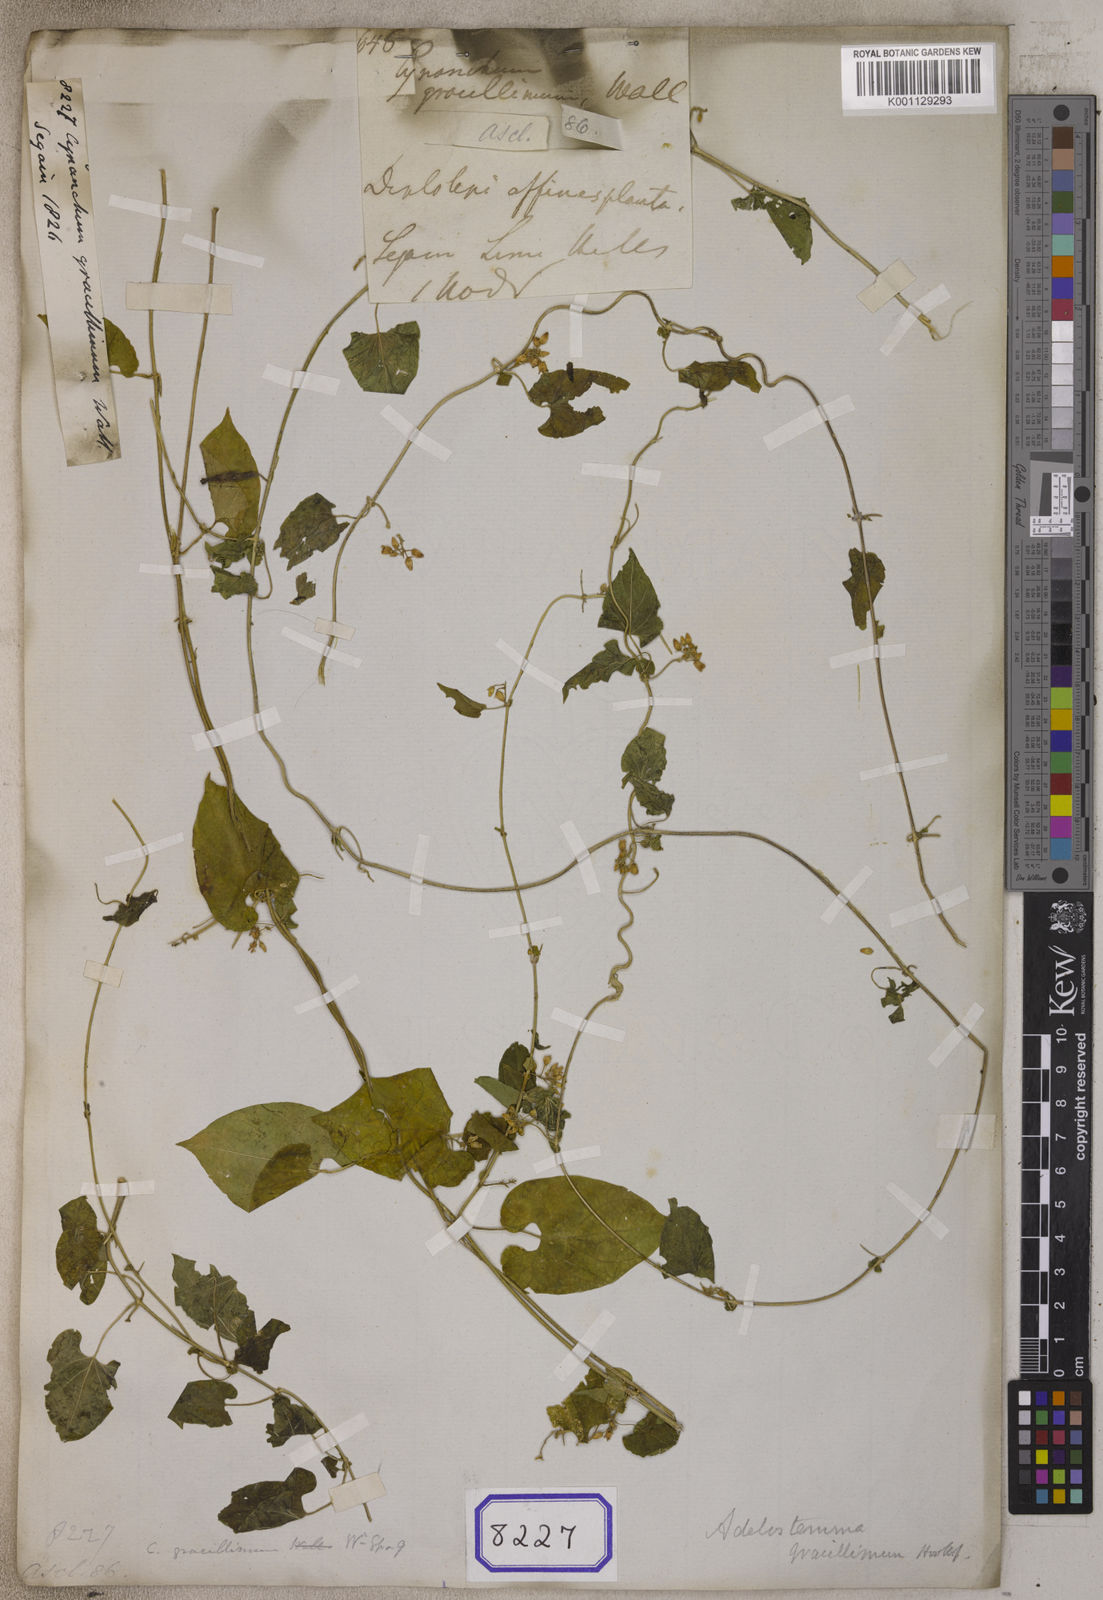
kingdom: Plantae
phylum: Tracheophyta
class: Magnoliopsida
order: Gentianales
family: Apocynaceae
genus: Cynanchum
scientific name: Cynanchum
